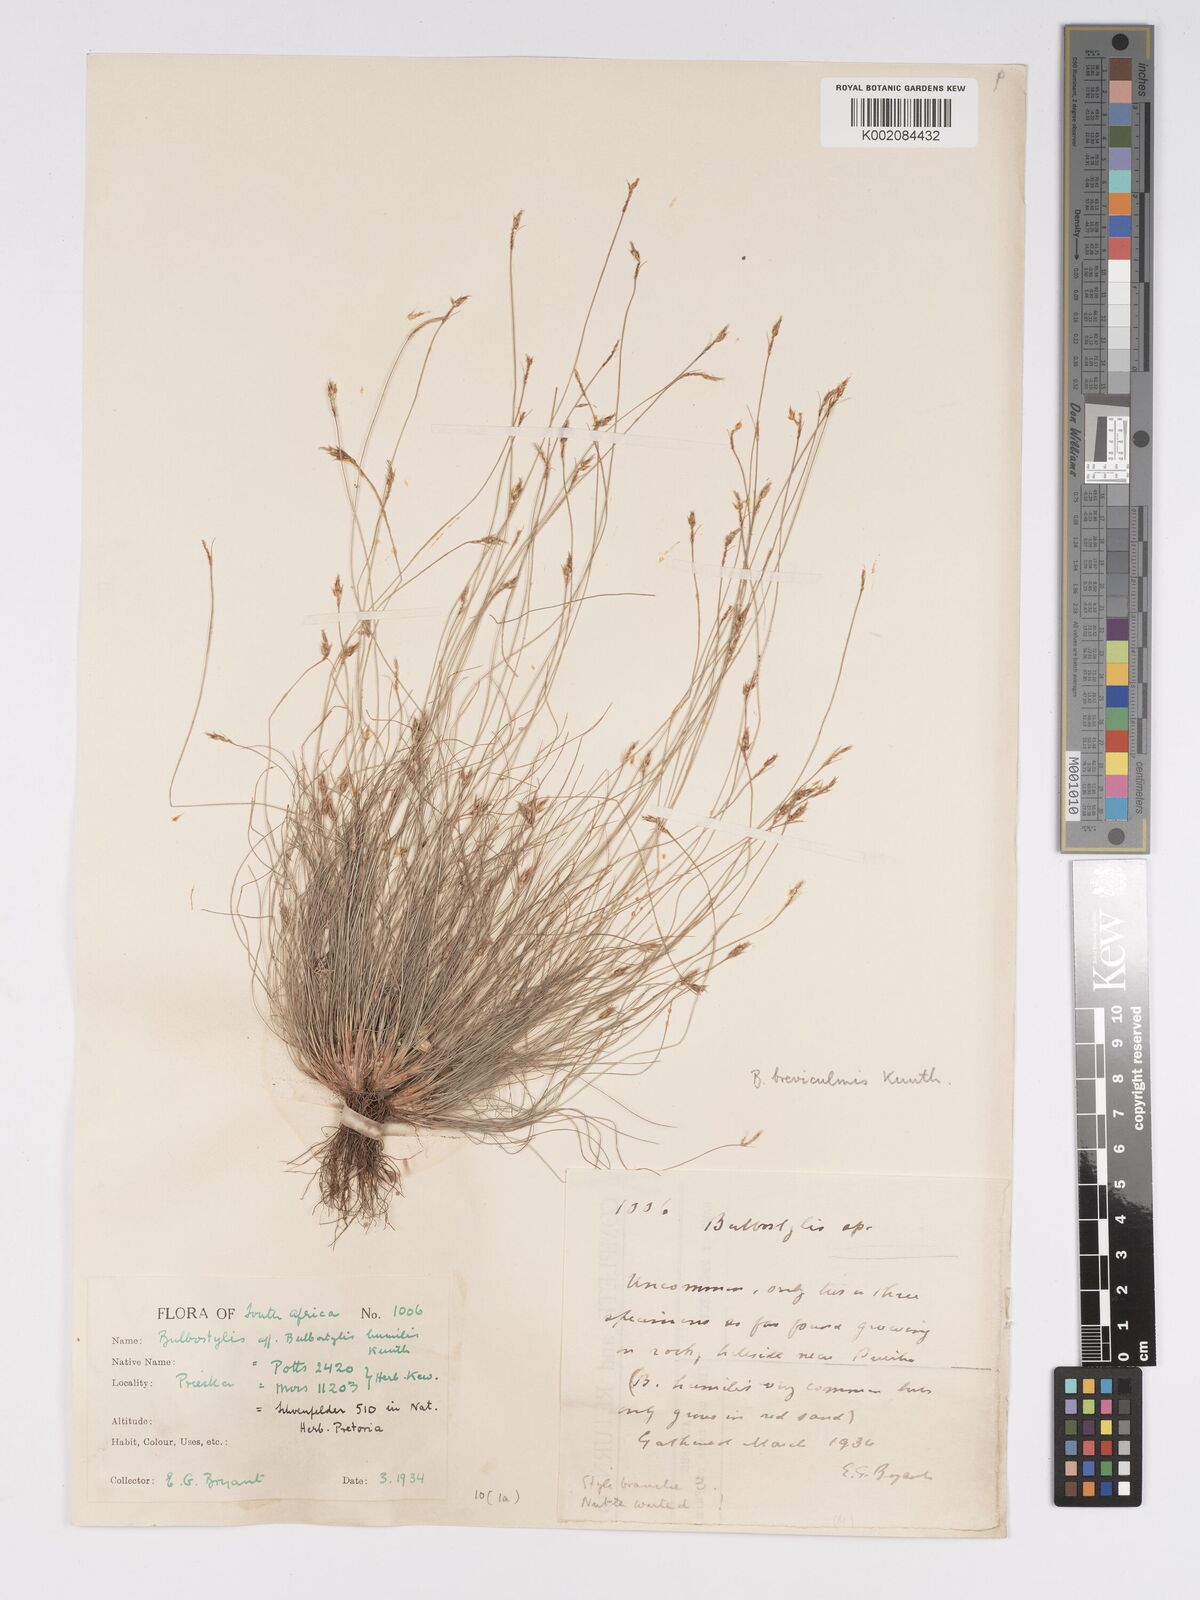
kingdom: Plantae
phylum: Tracheophyta
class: Liliopsida
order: Poales
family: Cyperaceae
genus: Bulbostylis
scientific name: Bulbostylis humilis
